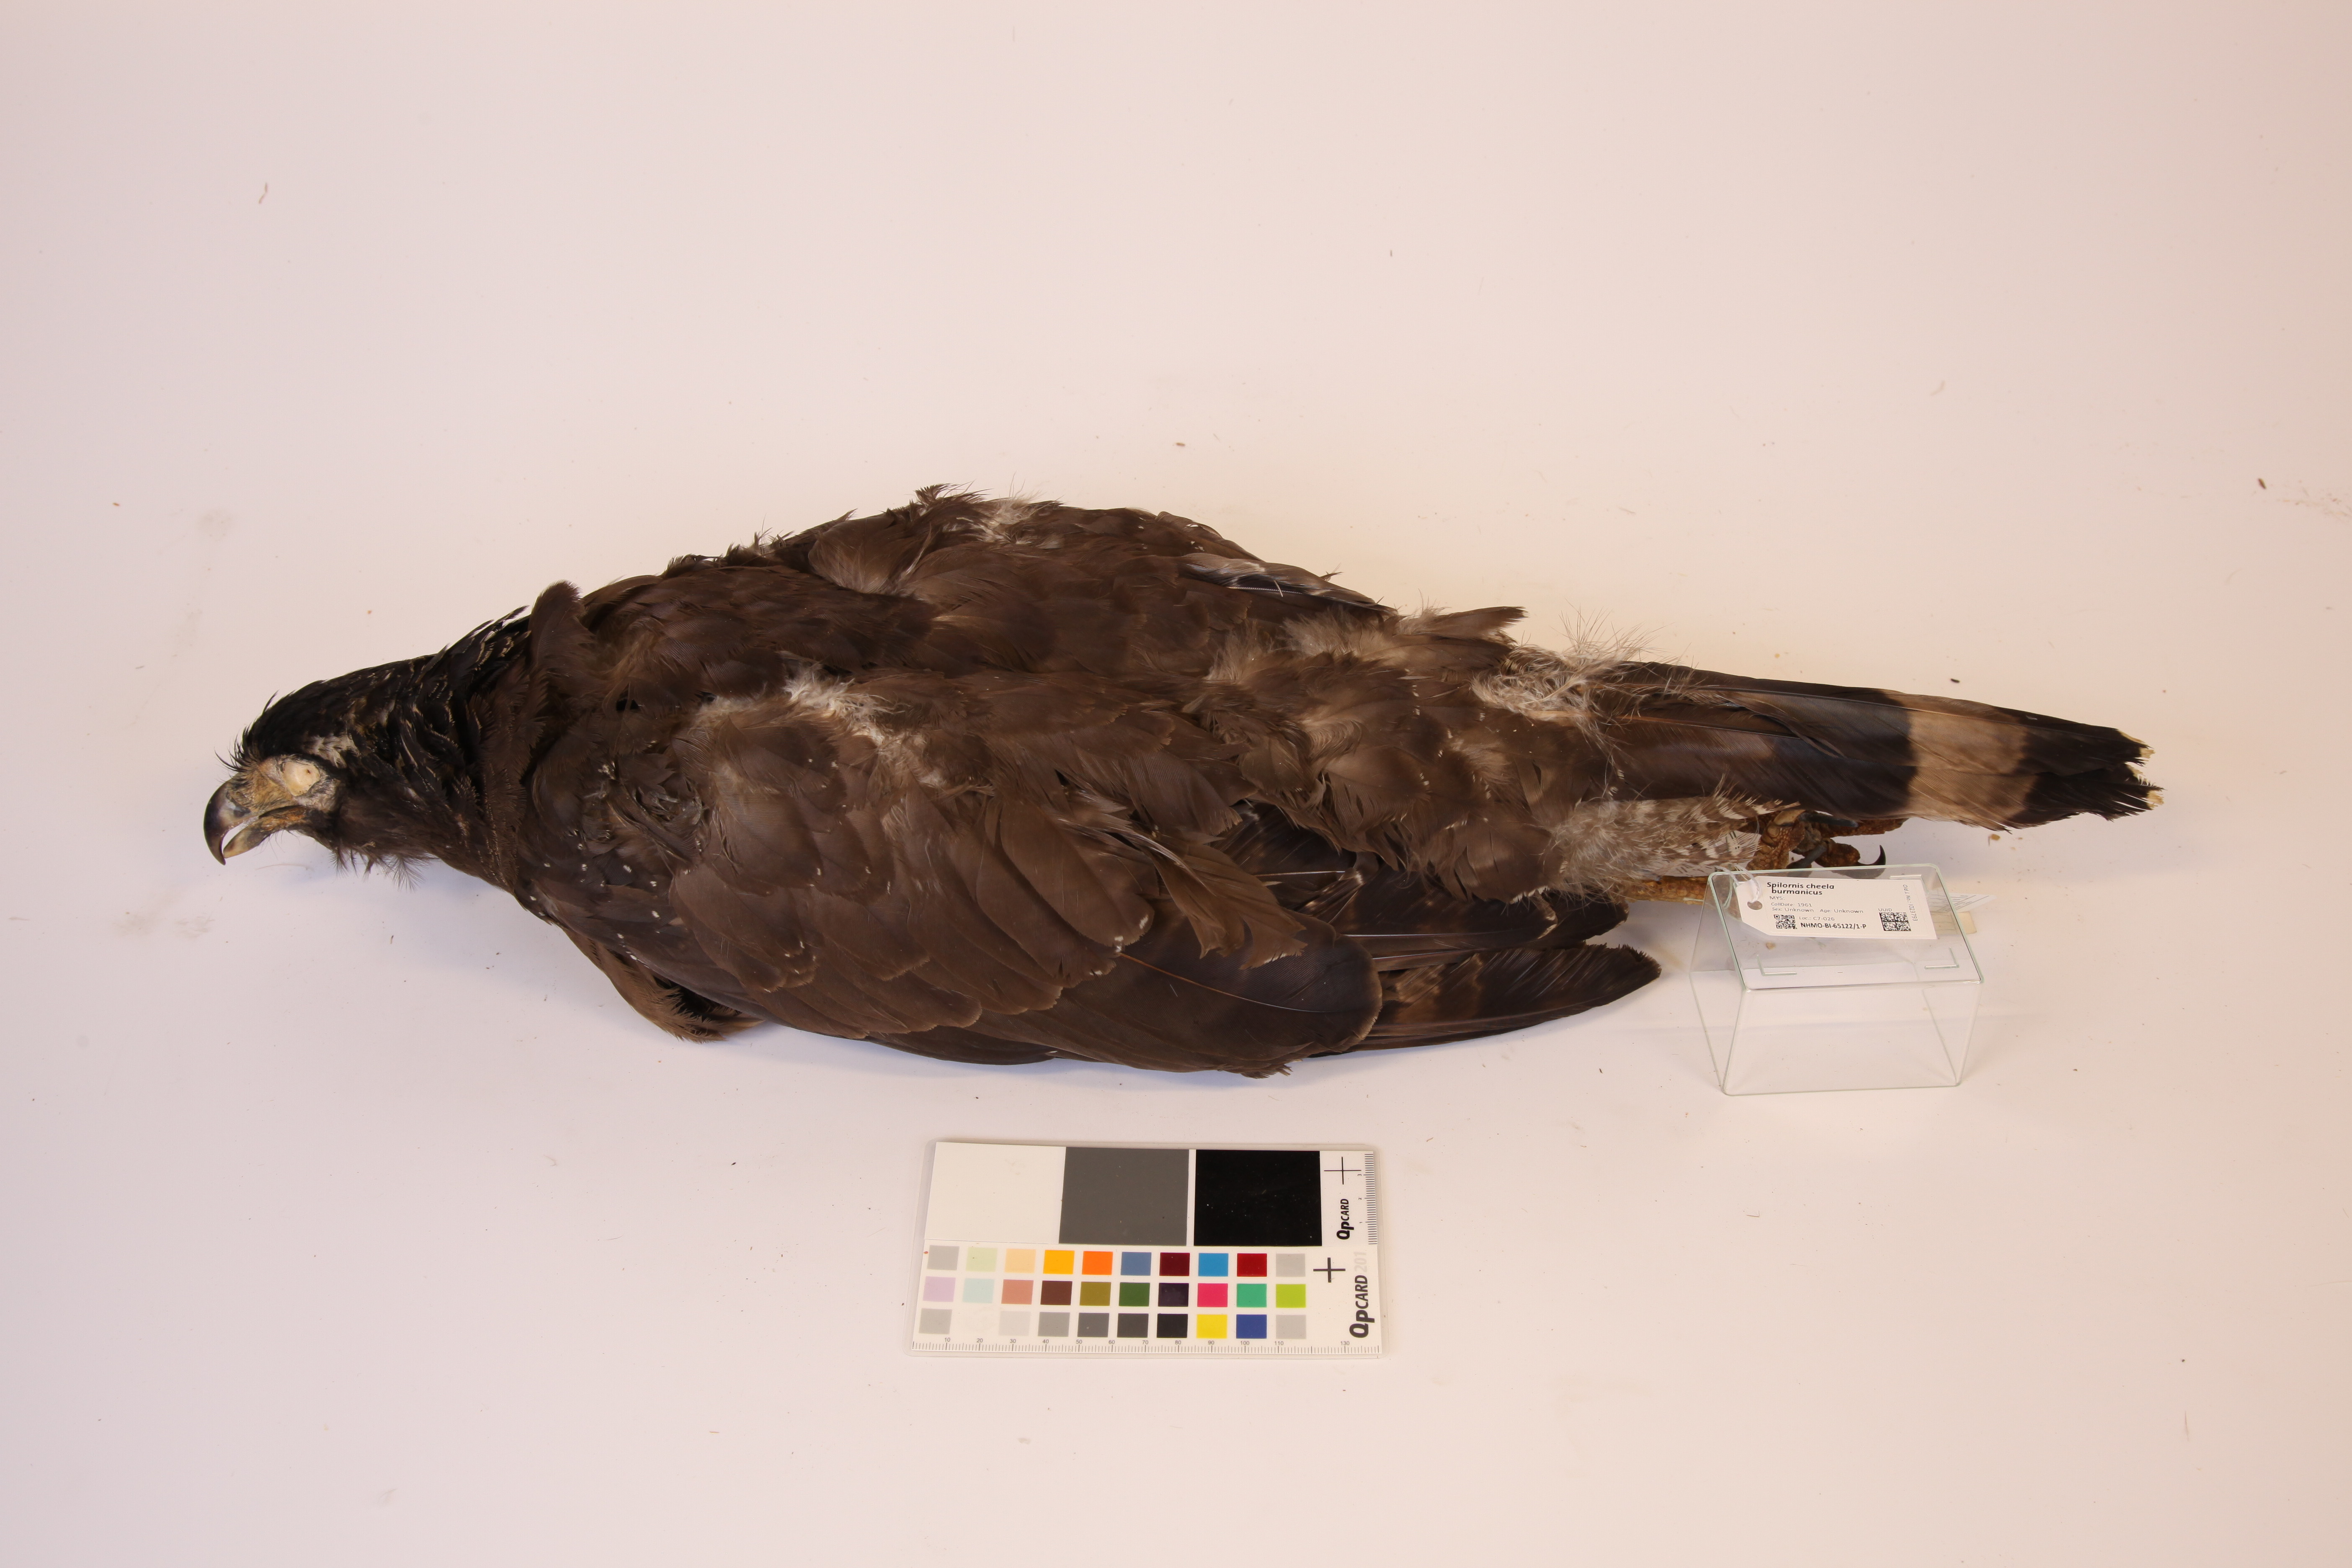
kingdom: Animalia
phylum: Chordata
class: Aves
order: Accipitriformes
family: Accipitridae
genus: Spilornis
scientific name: Spilornis cheela
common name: Crested serpent eagle
